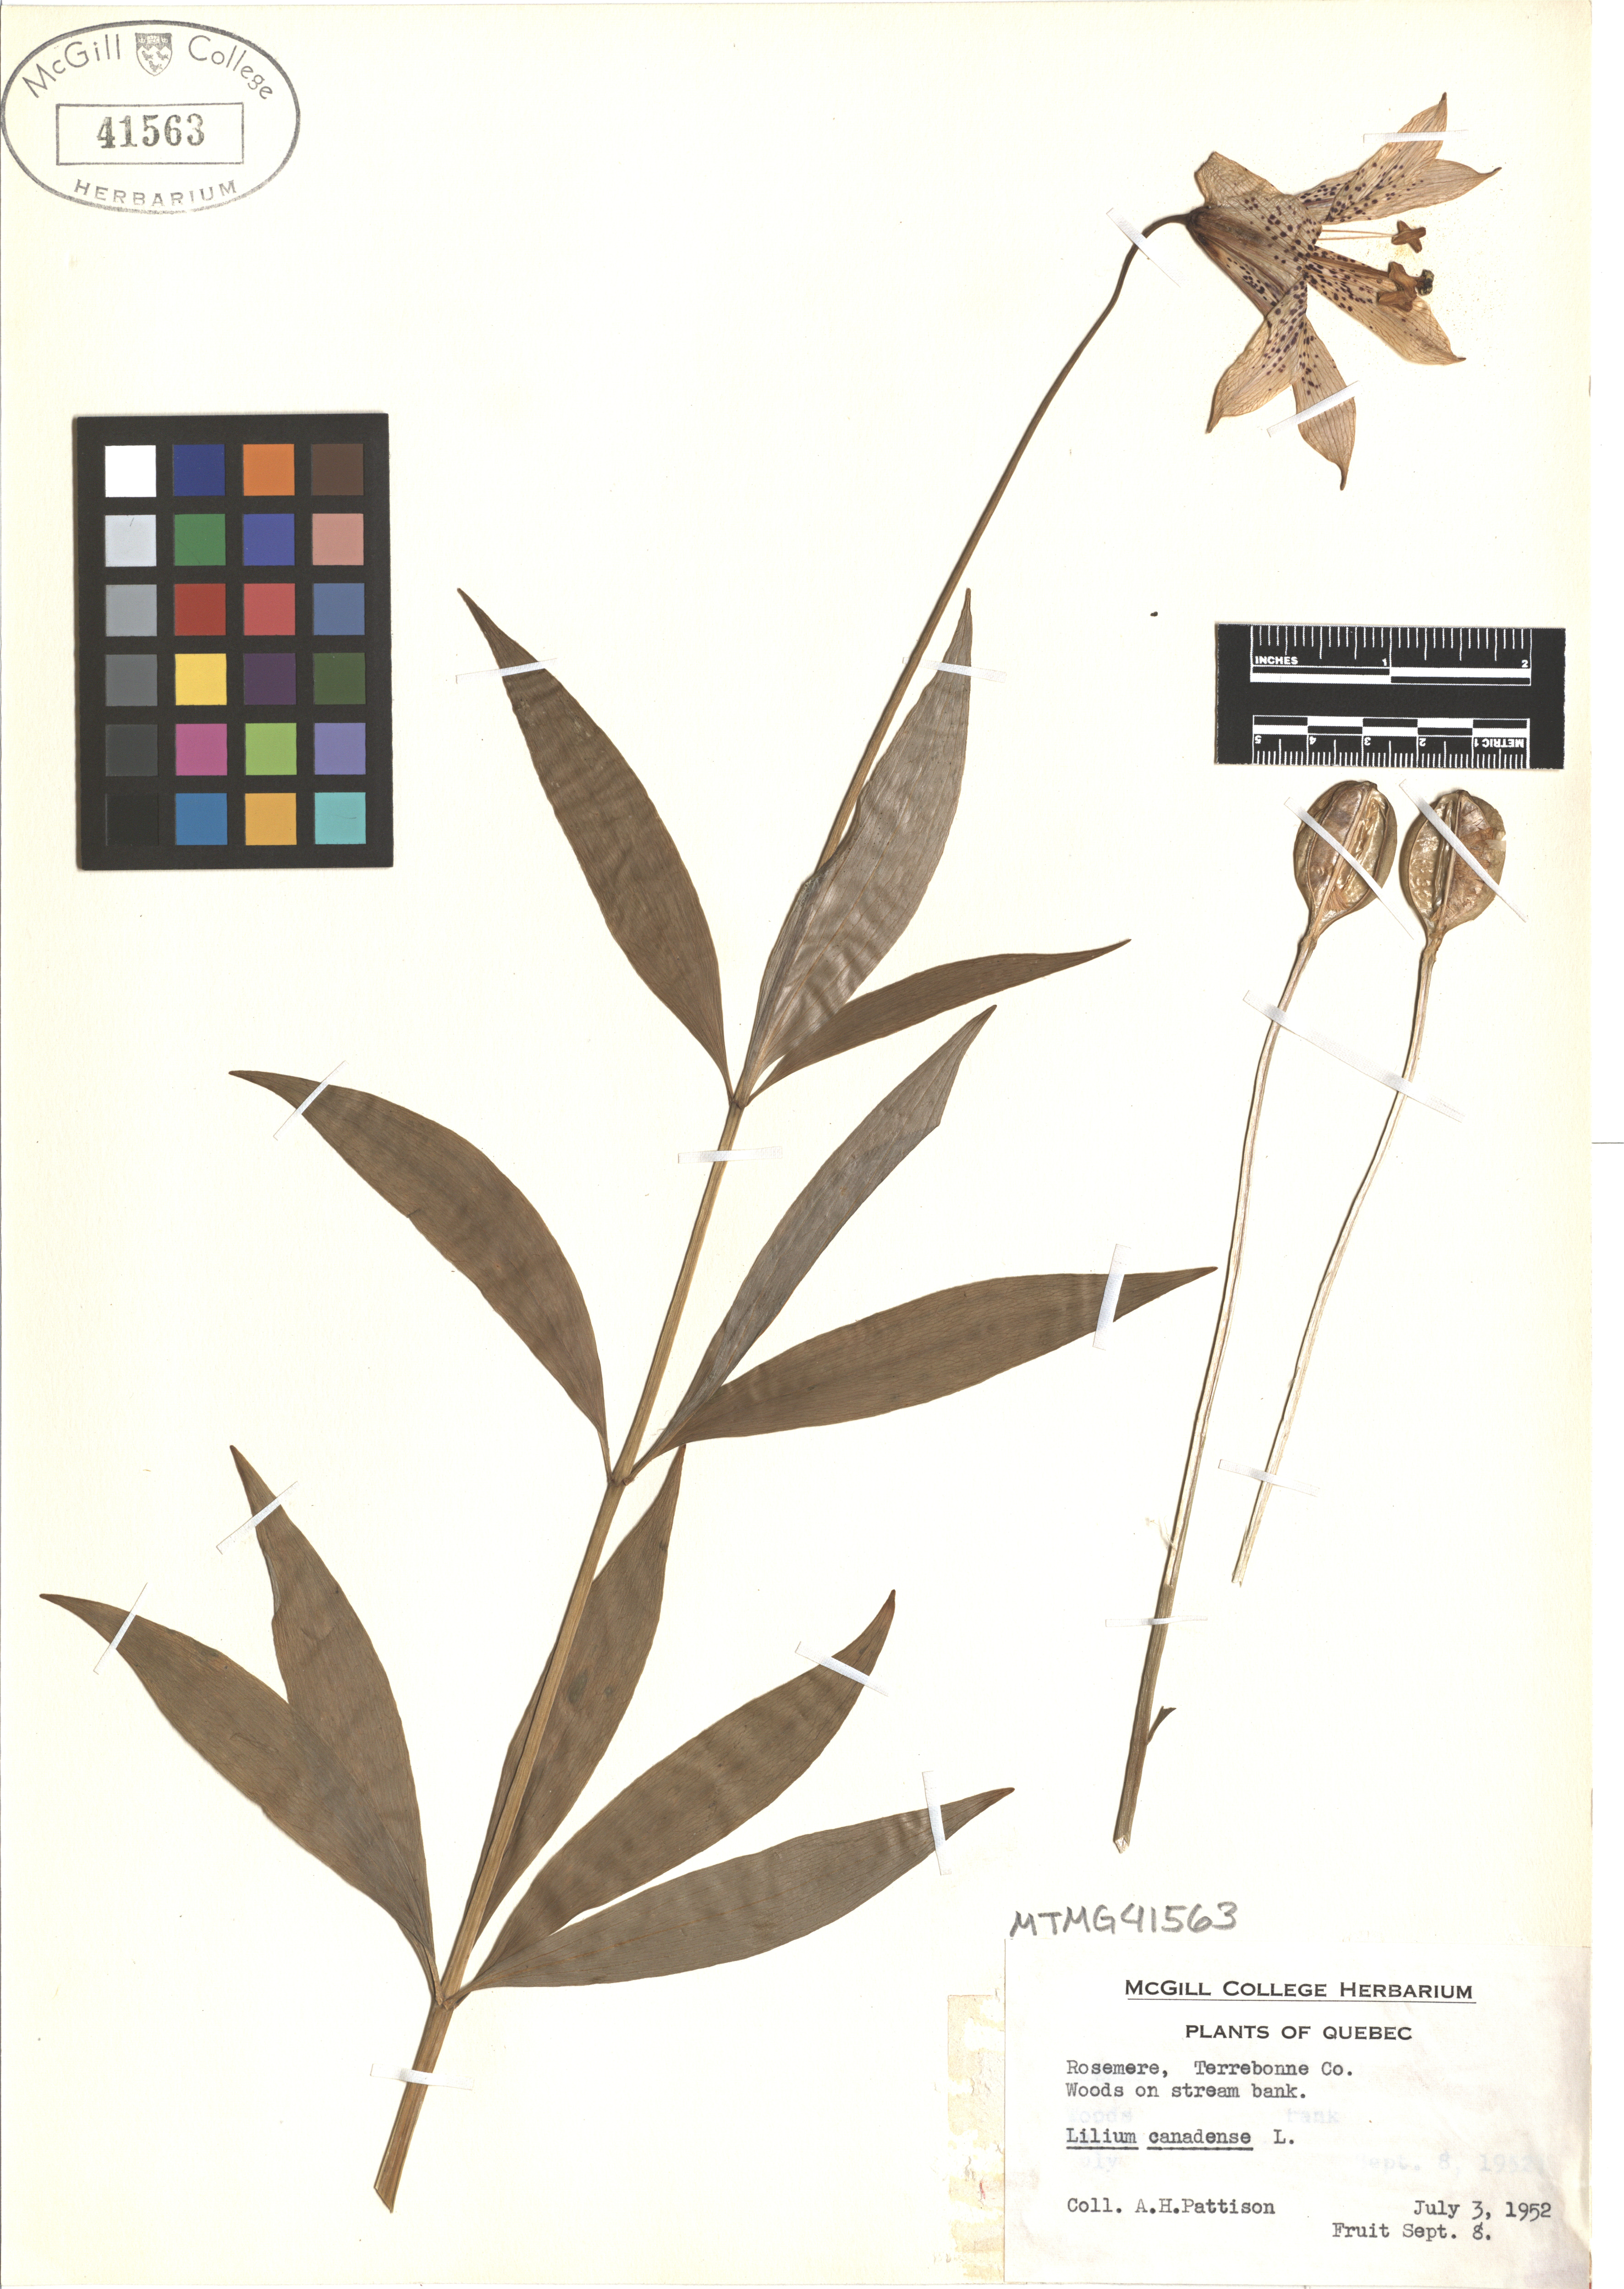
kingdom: Plantae
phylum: Tracheophyta
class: Liliopsida
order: Liliales
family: Liliaceae
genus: Lilium
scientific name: Lilium canadense
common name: Canada lily
